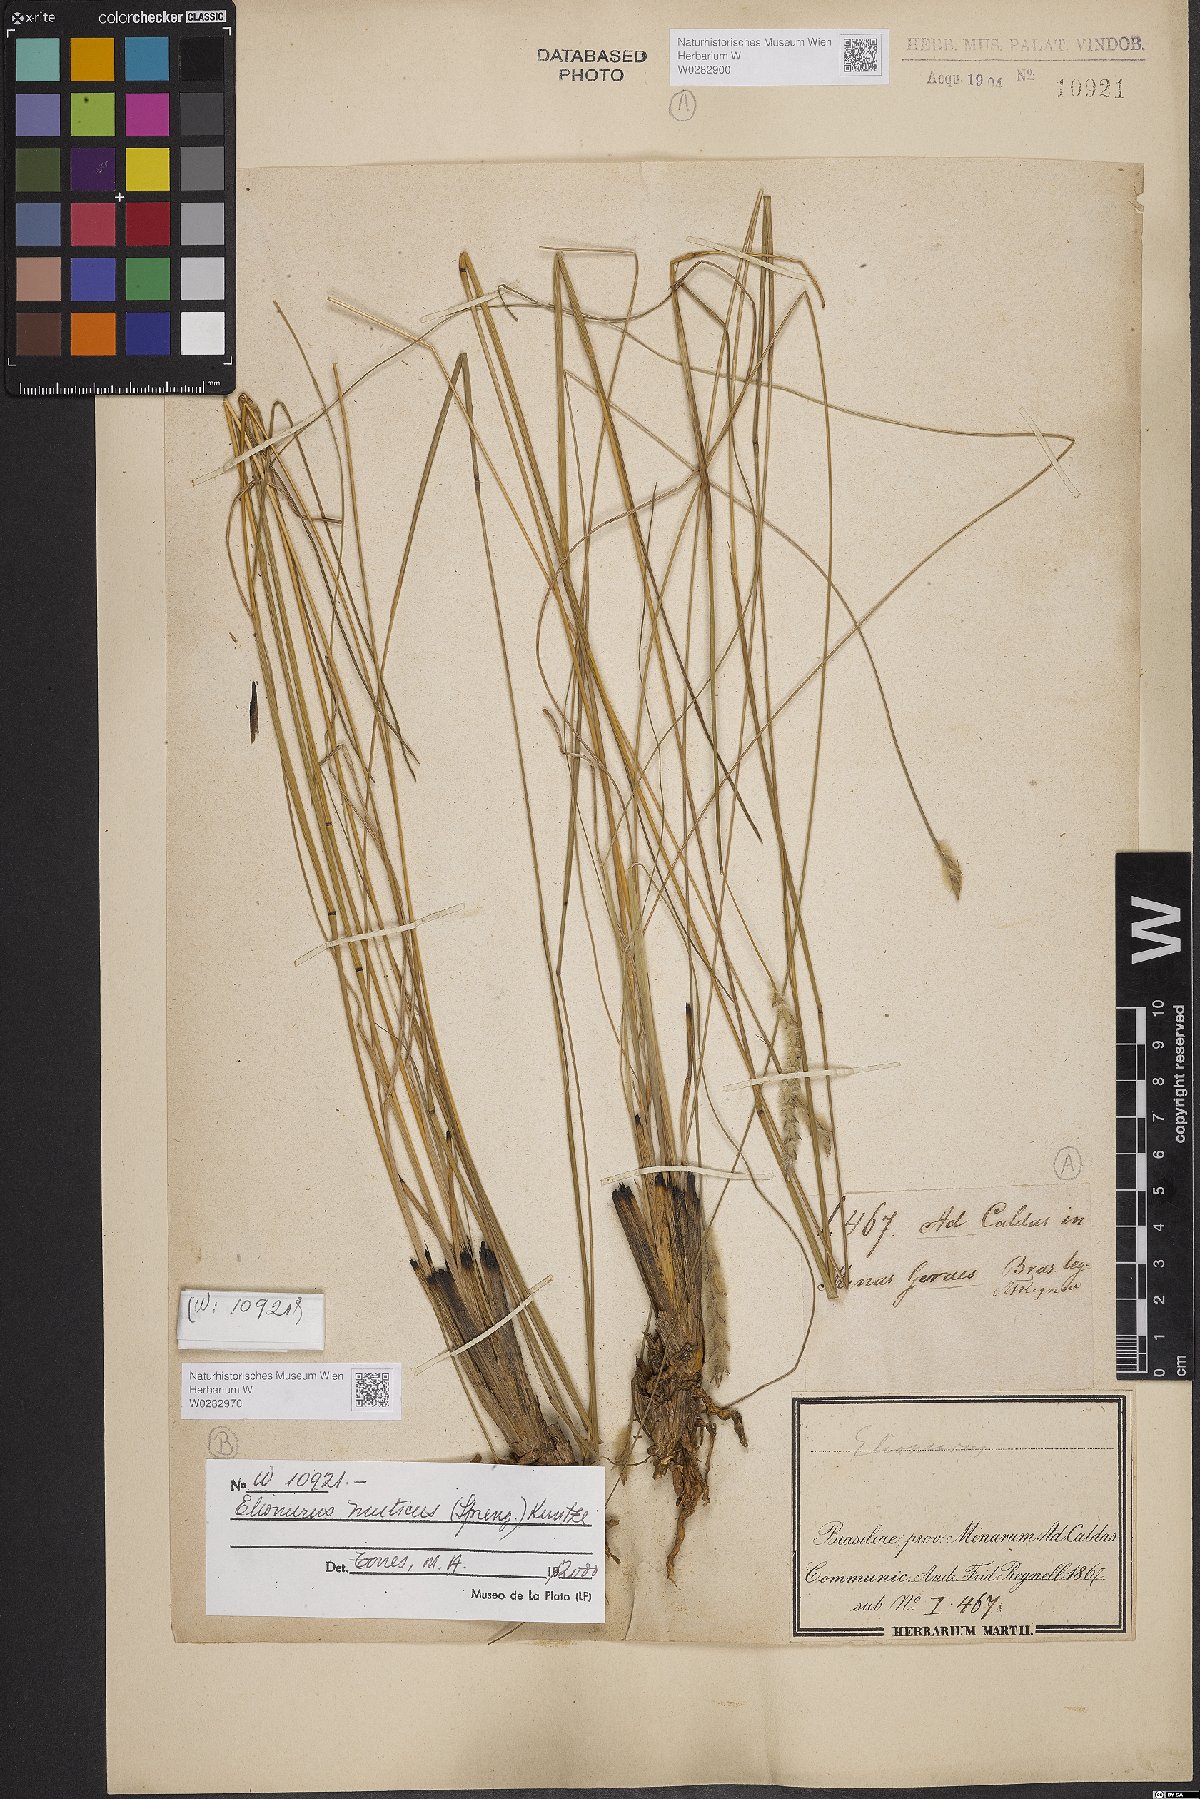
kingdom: Plantae
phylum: Tracheophyta
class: Liliopsida
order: Poales
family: Poaceae
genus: Elionurus
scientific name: Elionurus muticus
